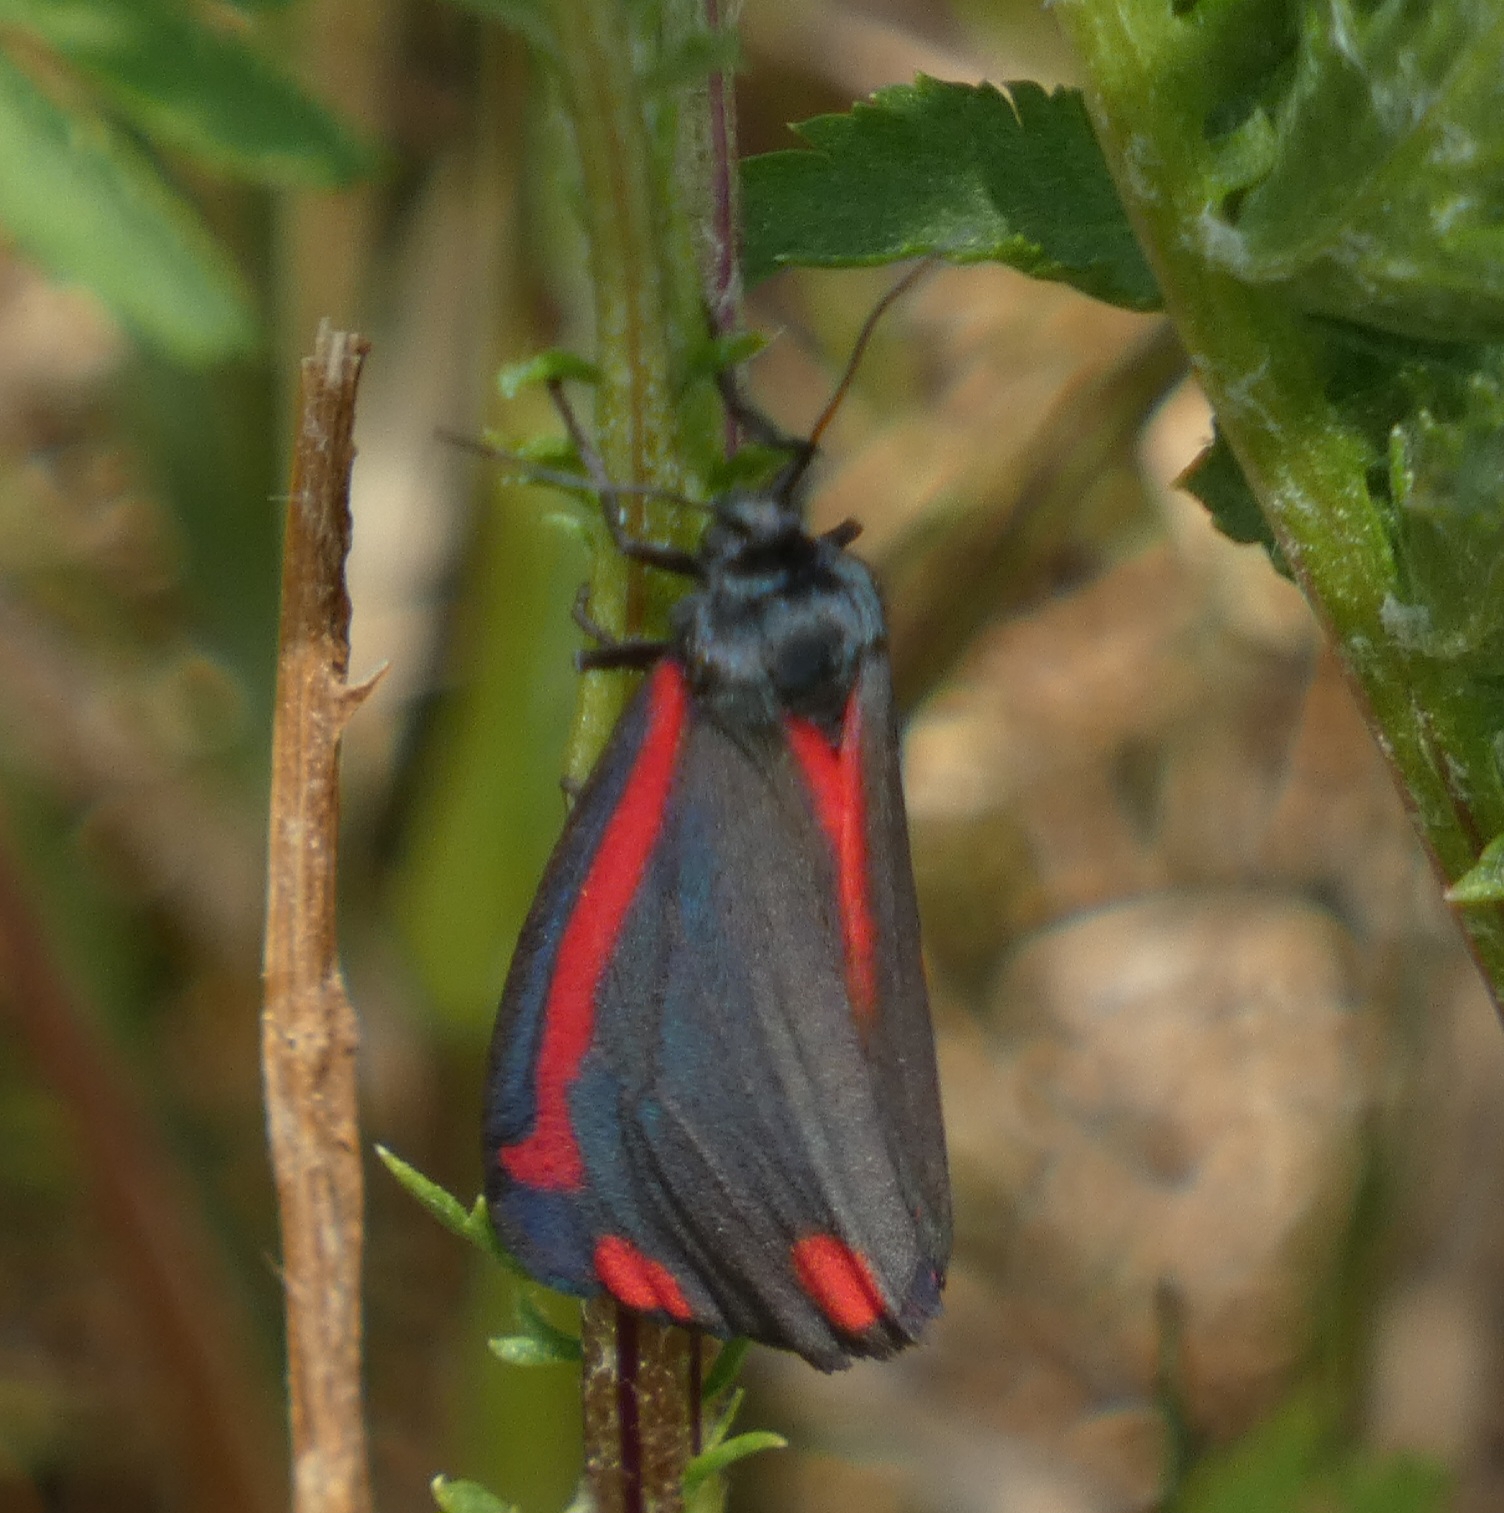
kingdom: Animalia
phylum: Arthropoda
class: Insecta
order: Lepidoptera
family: Erebidae
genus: Tyria
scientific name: Tyria jacobaeae
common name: Blodplet
